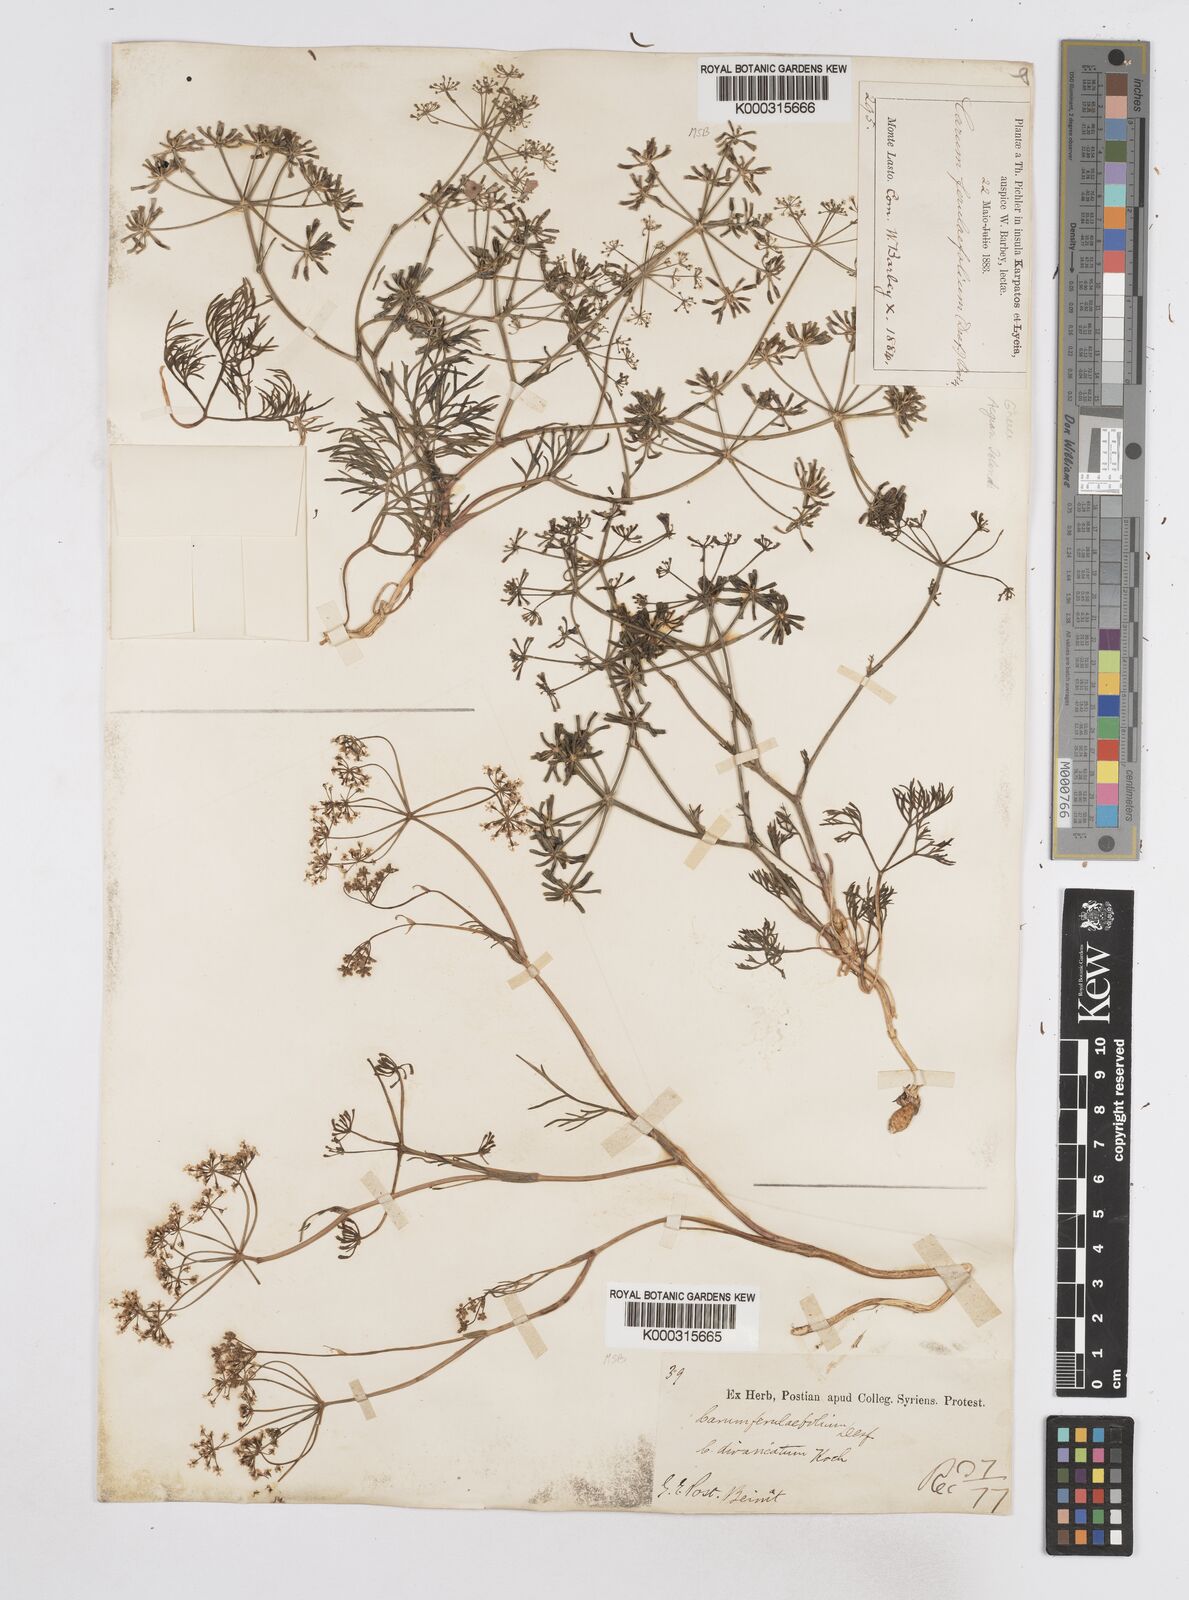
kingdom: Plantae
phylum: Tracheophyta
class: Magnoliopsida
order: Apiales
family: Apiaceae
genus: Bunium
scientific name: Bunium ferulaceum
